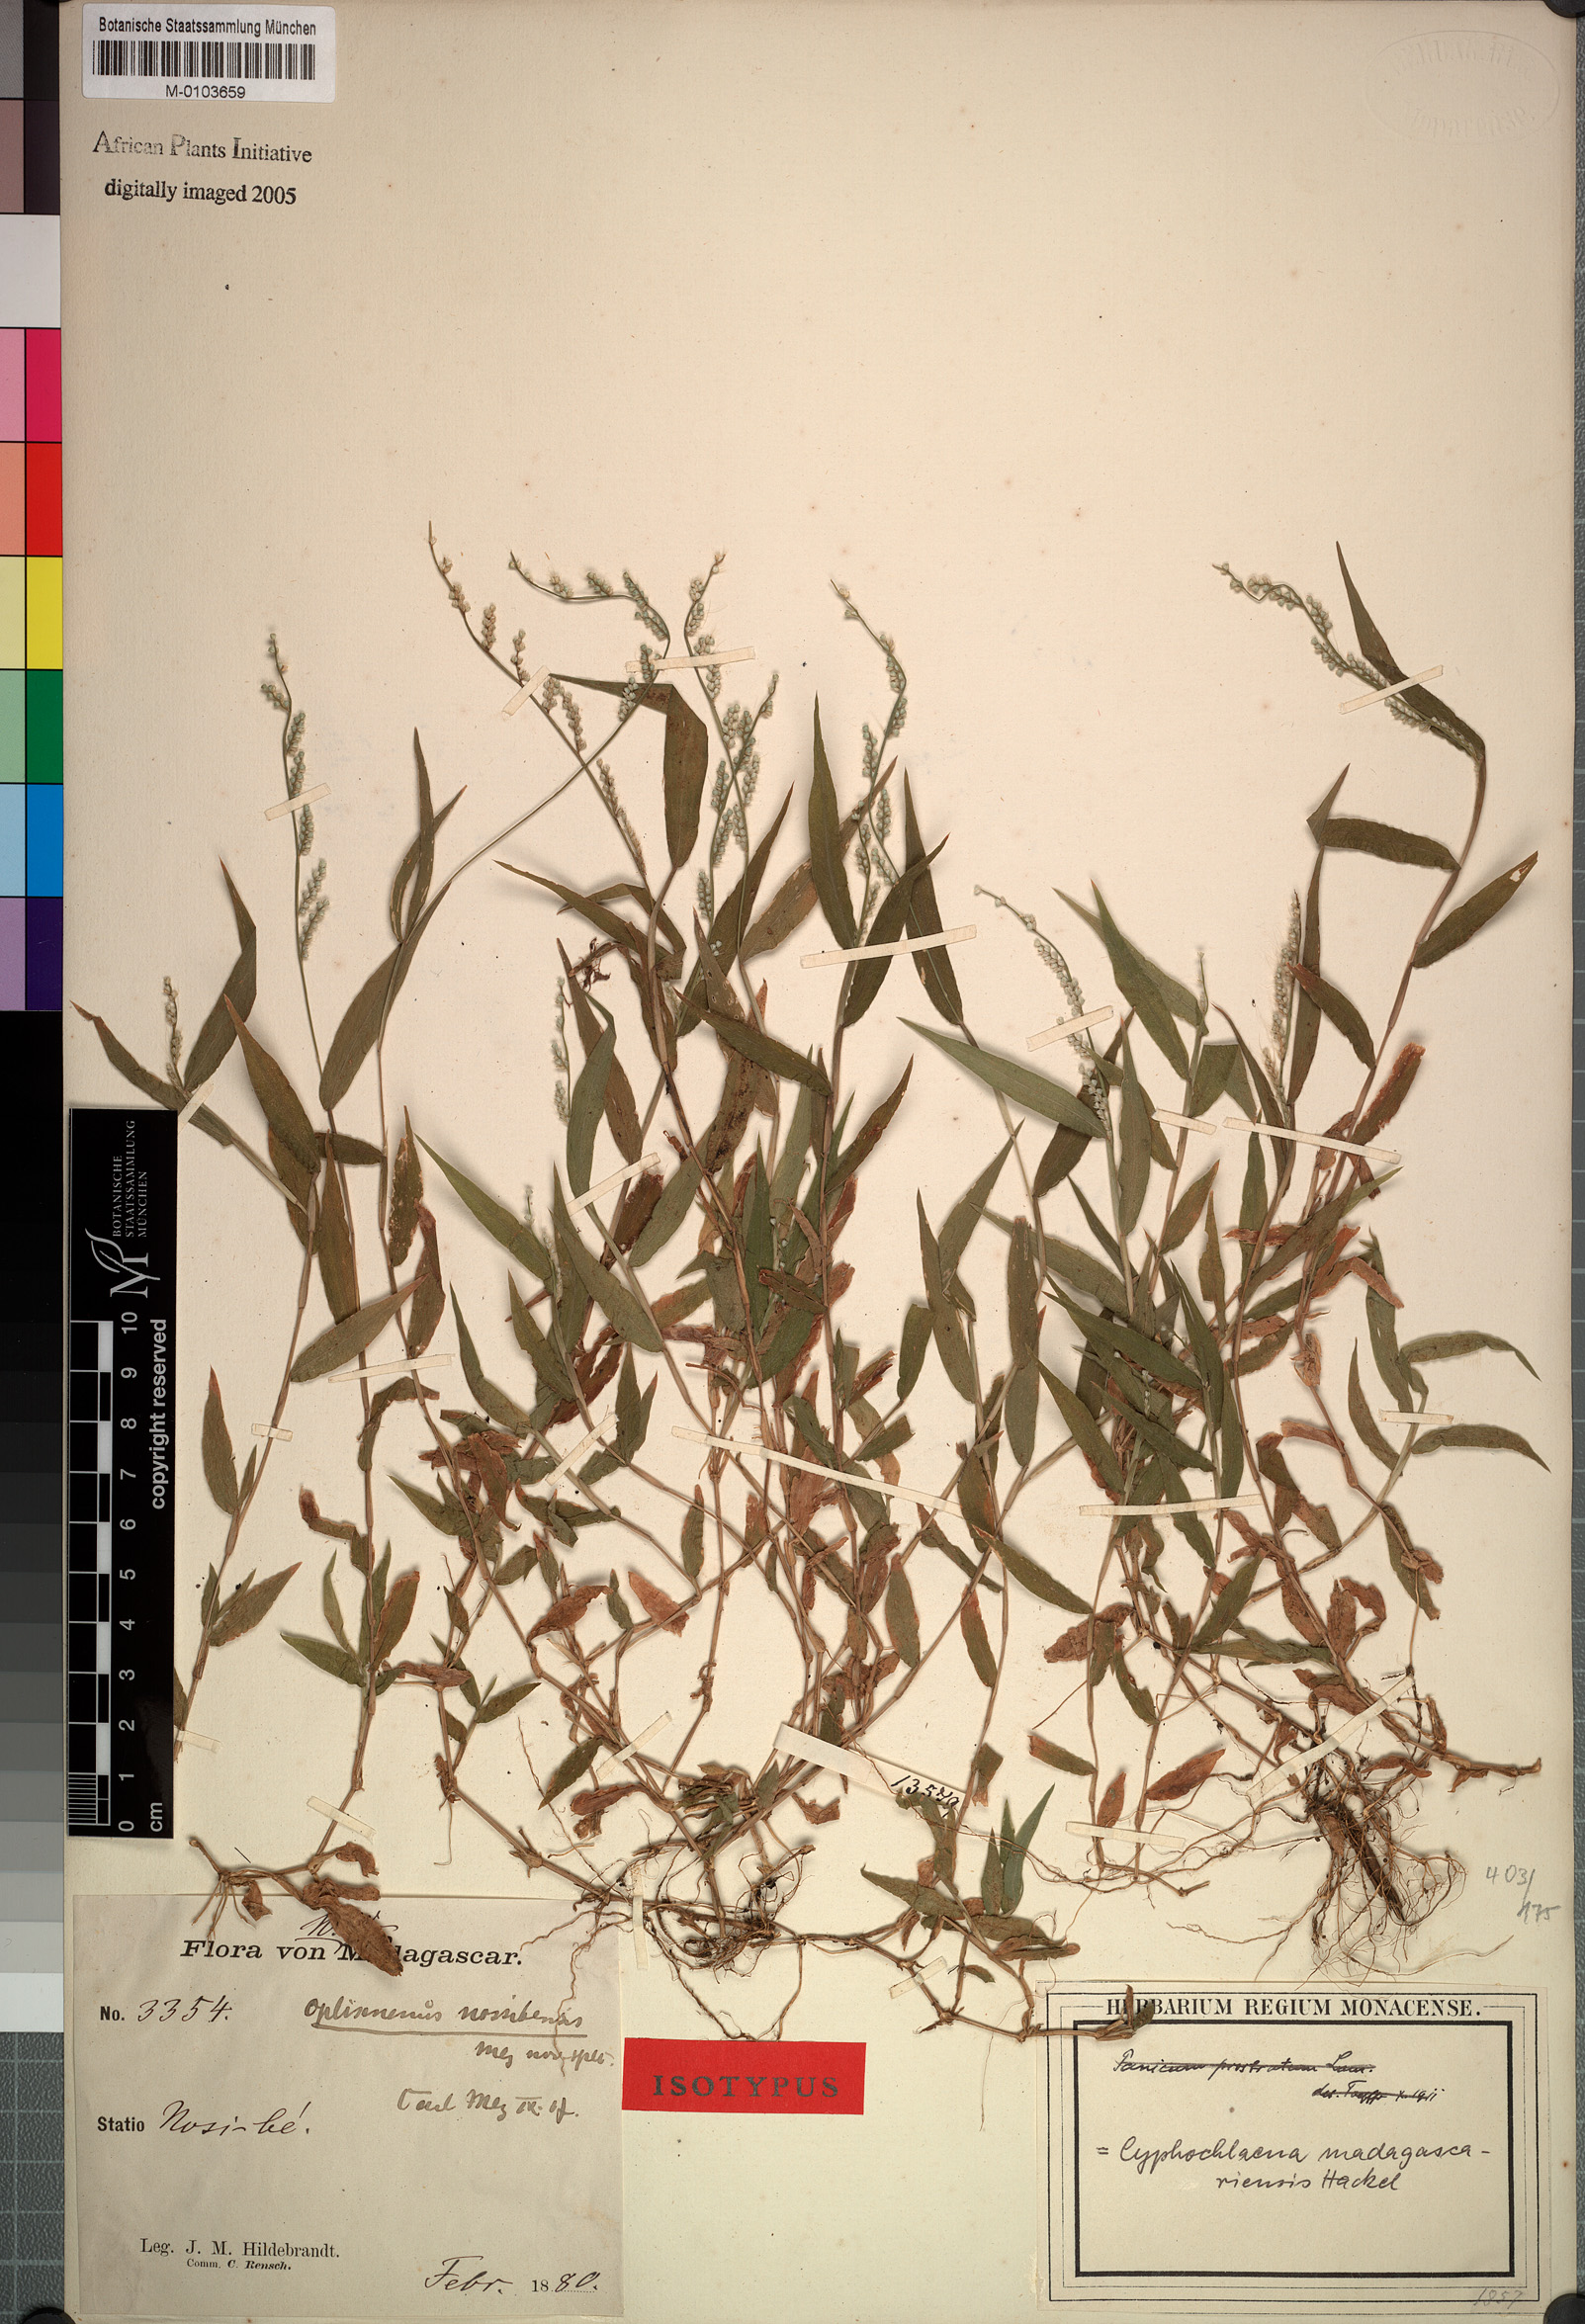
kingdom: Plantae
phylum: Tracheophyta
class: Liliopsida
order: Poales
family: Poaceae
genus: Cyphochlaena
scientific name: Cyphochlaena madagascariensis
